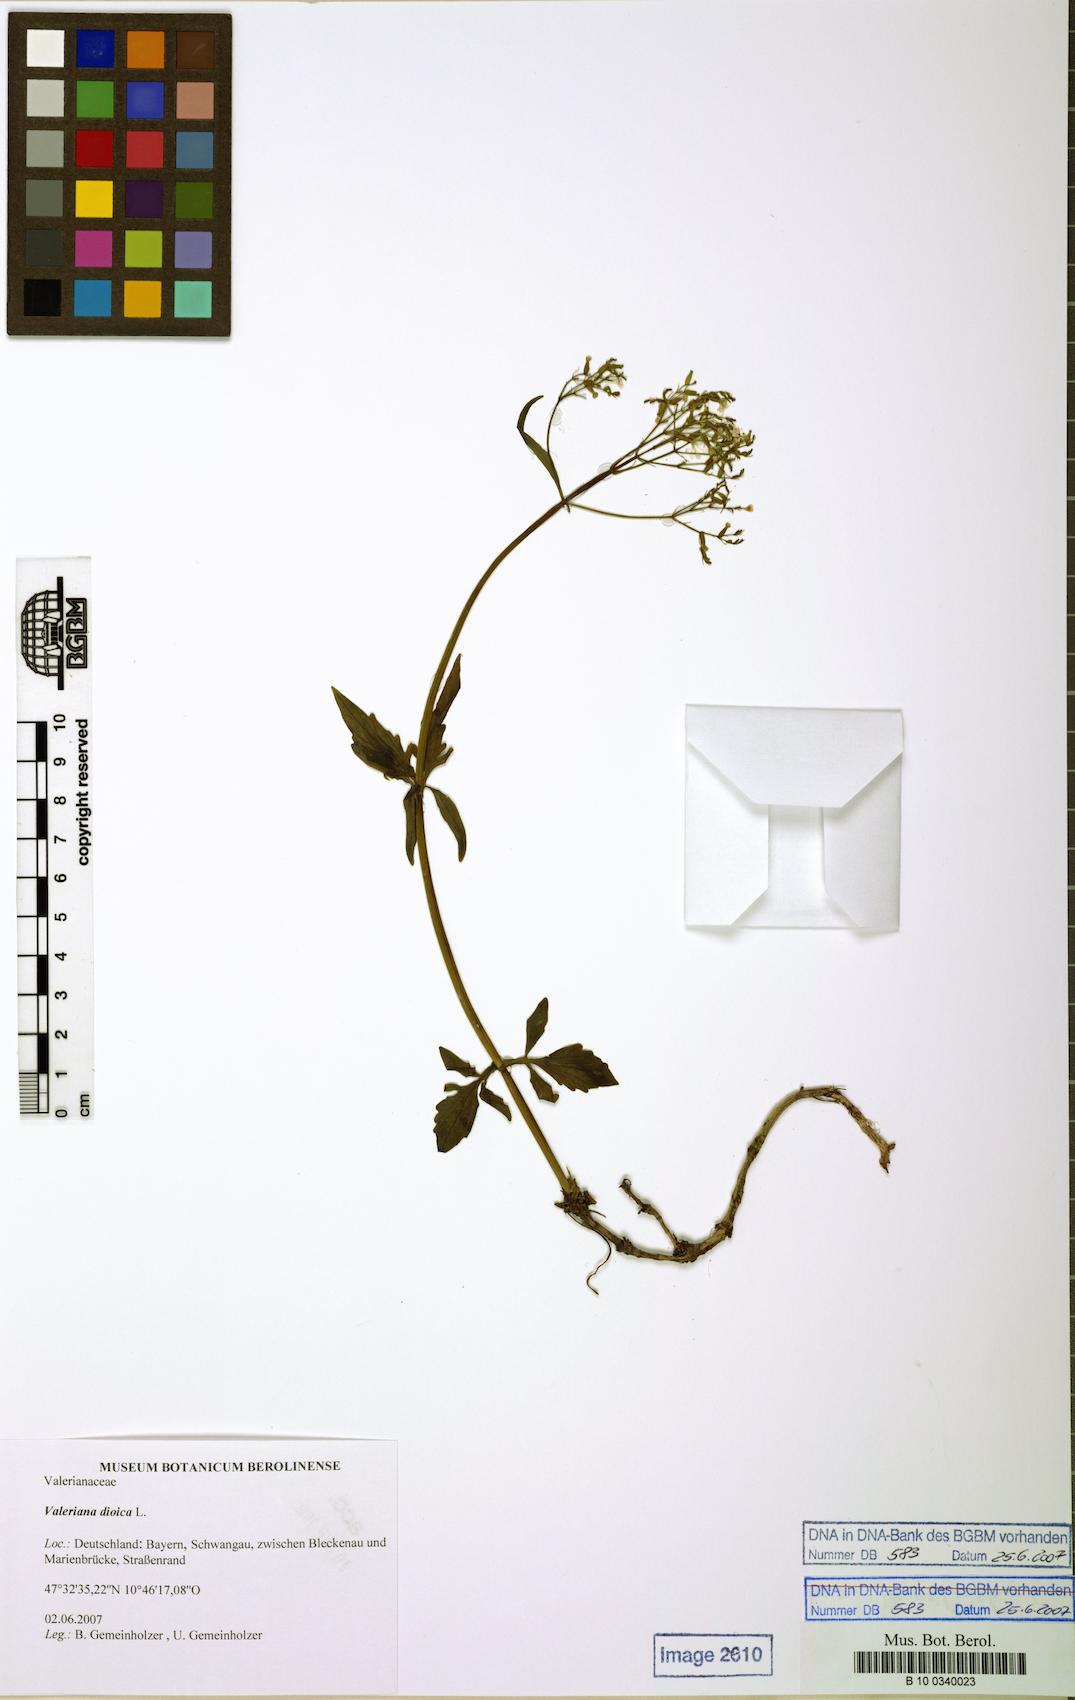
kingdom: Plantae
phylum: Tracheophyta
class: Magnoliopsida
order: Dipsacales
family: Caprifoliaceae
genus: Valeriana
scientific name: Valeriana dioica
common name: Marsh valerian
